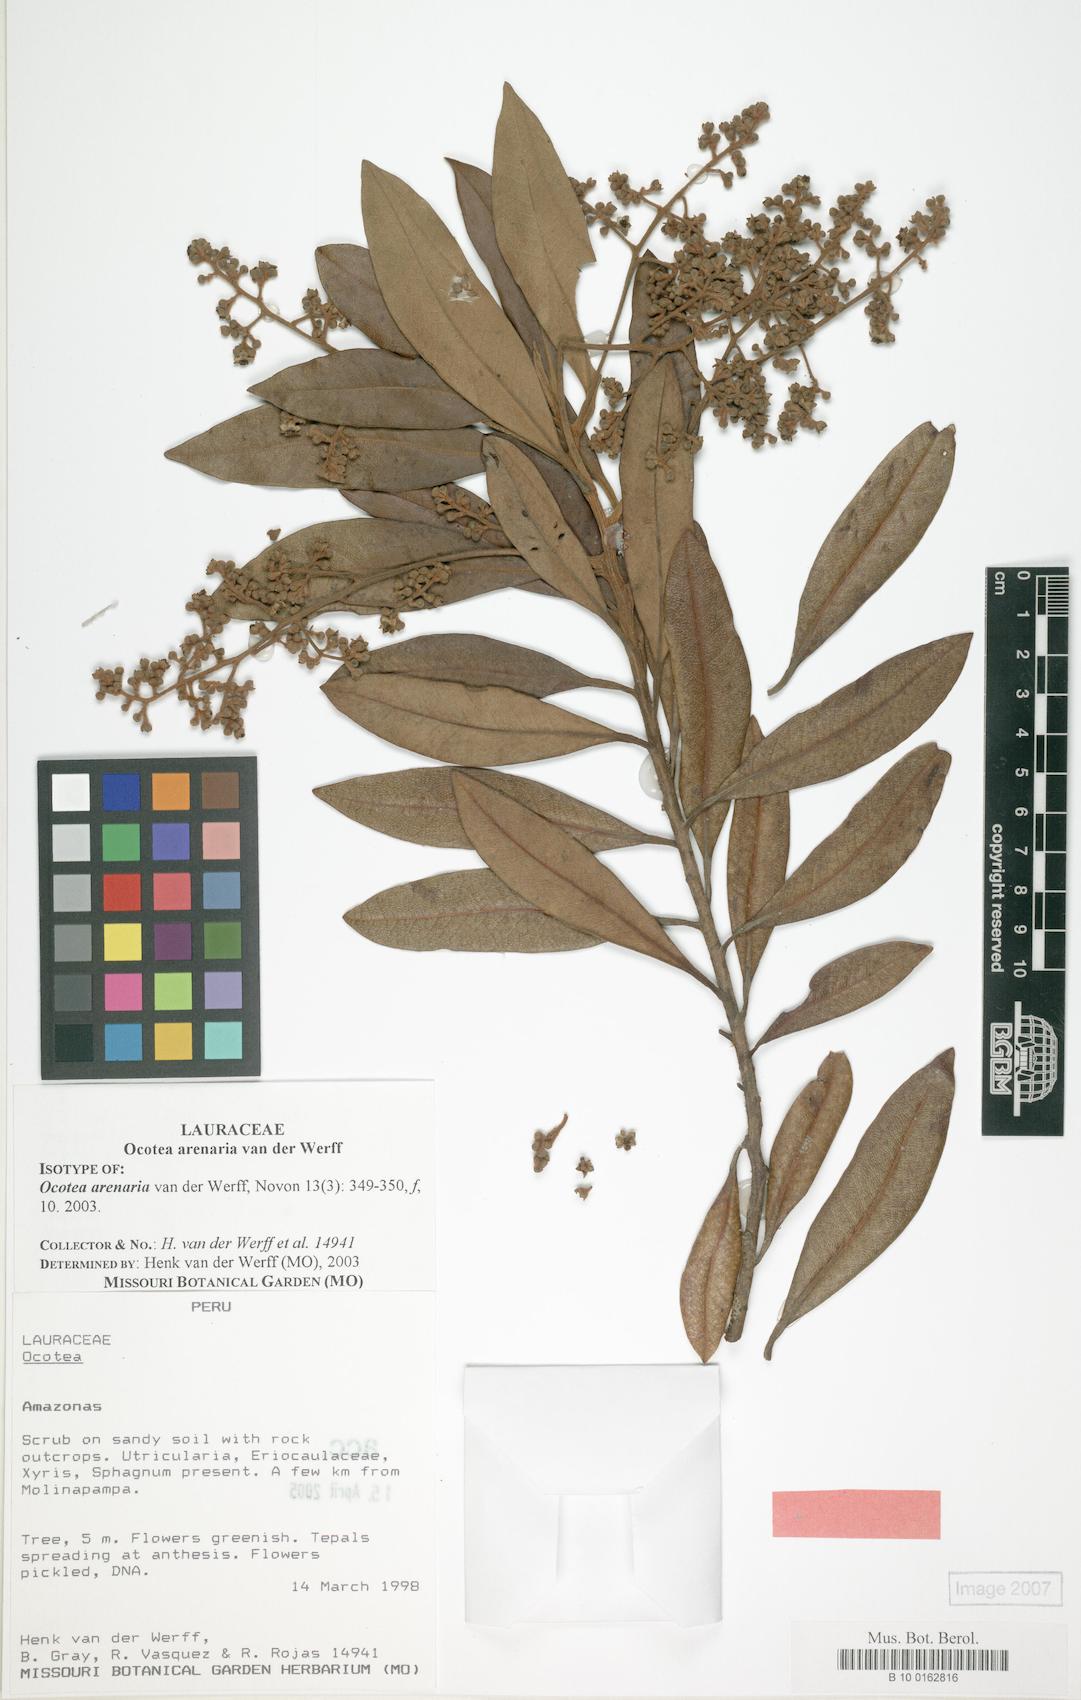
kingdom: Plantae
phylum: Tracheophyta
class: Magnoliopsida
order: Laurales
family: Lauraceae
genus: Ocotea
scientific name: Ocotea arenaria
